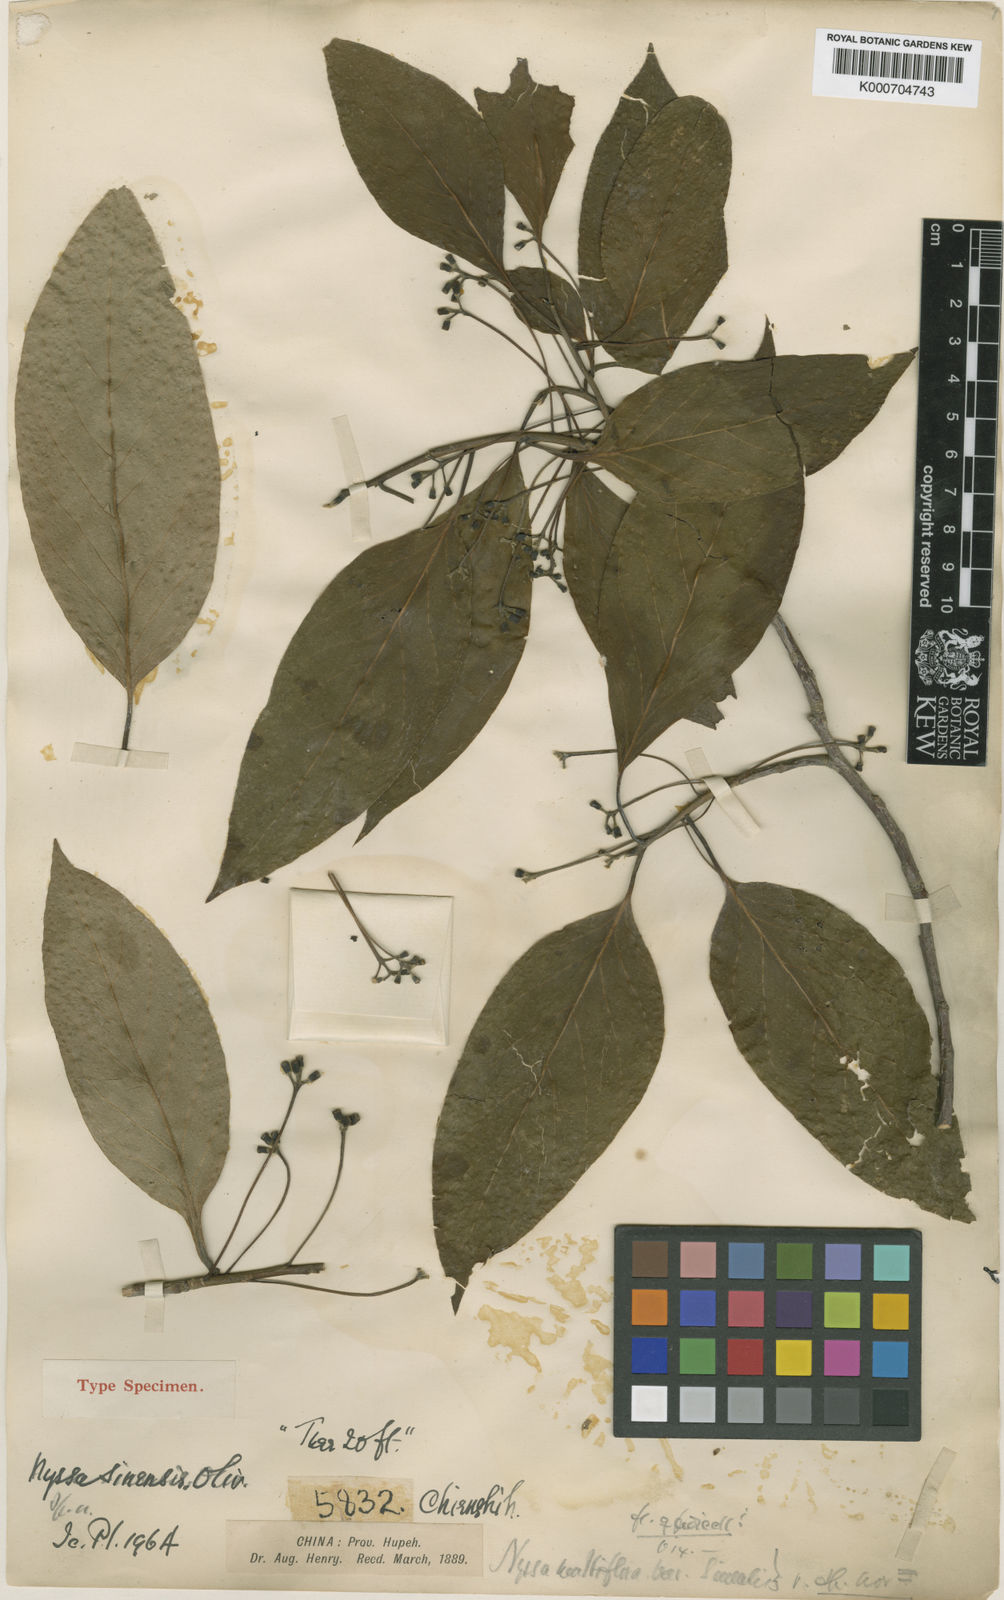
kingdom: Plantae
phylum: Tracheophyta
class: Magnoliopsida
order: Cornales
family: Nyssaceae
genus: Nyssa
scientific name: Nyssa sinensis
